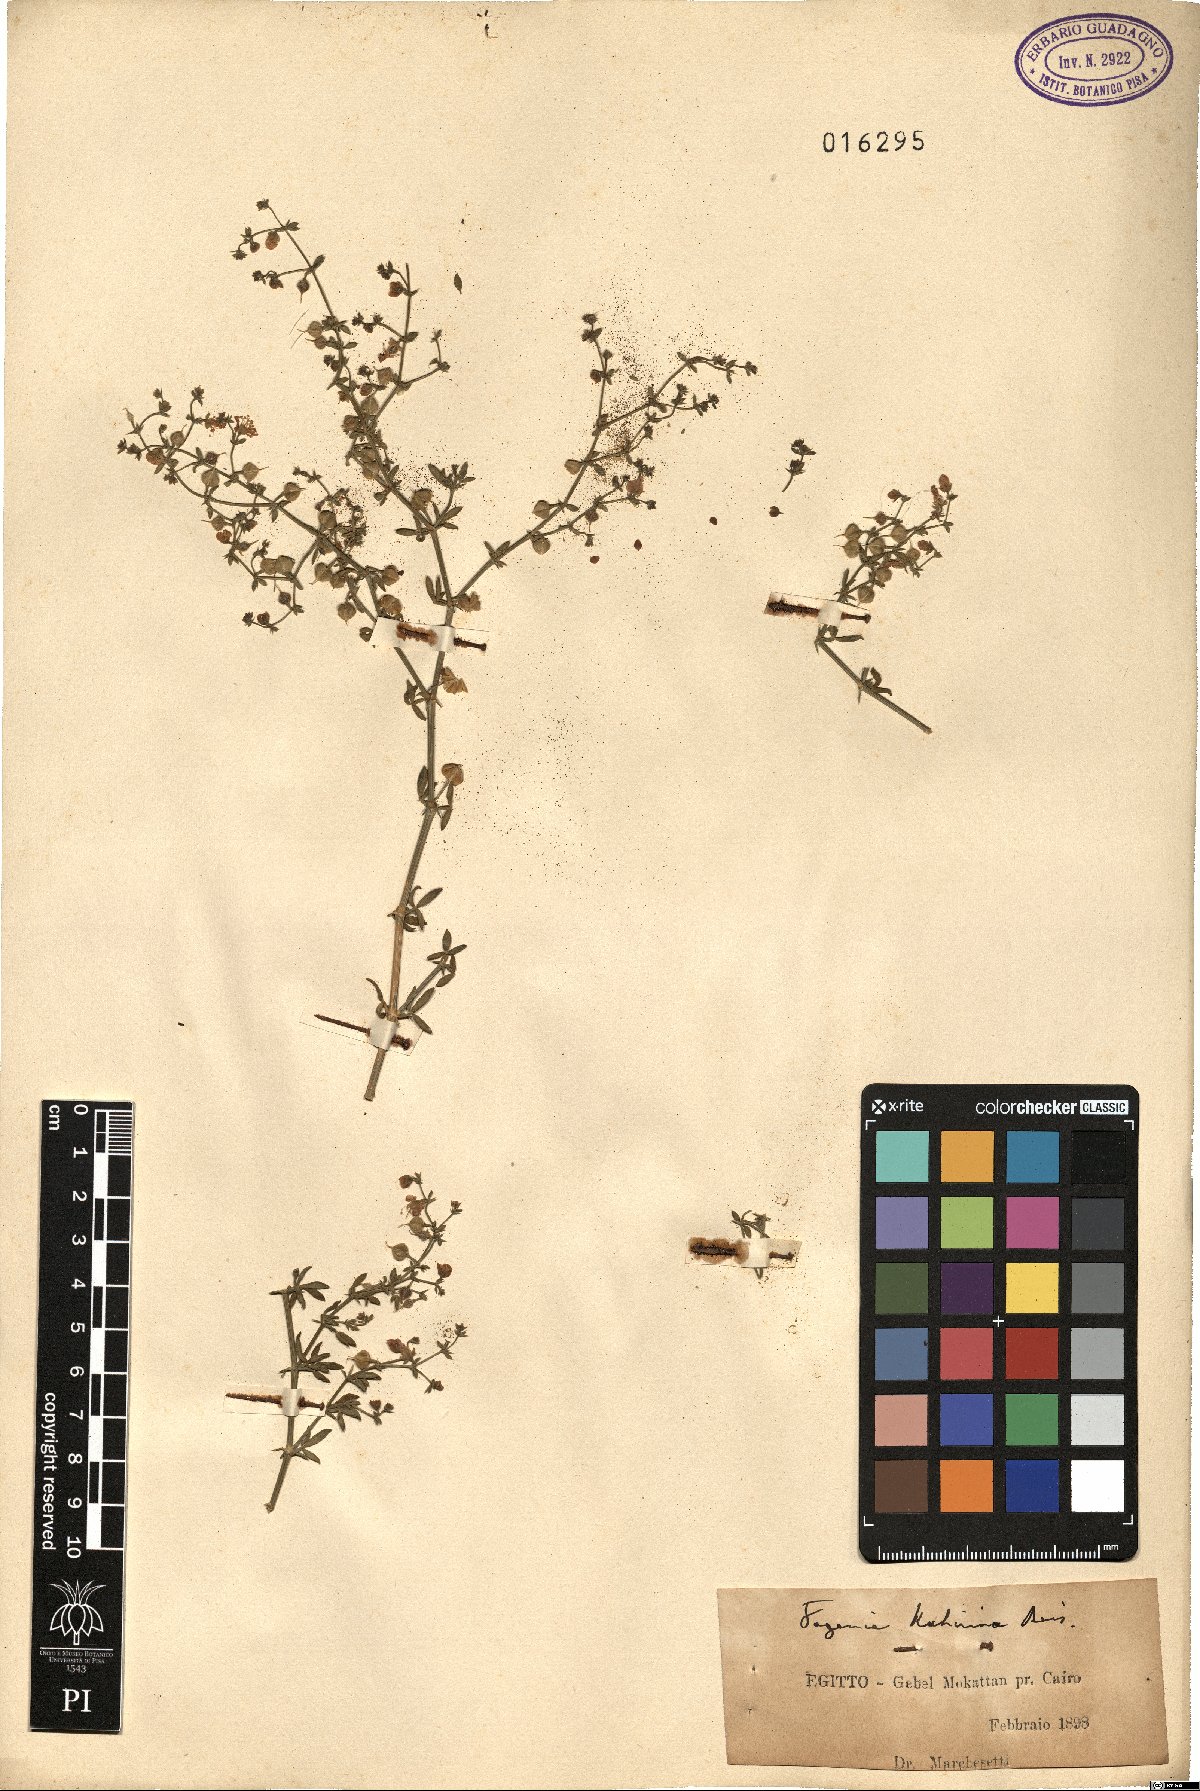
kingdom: Plantae
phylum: Tracheophyta
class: Magnoliopsida
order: Zygophyllales
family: Zygophyllaceae
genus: Fagonia
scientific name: Fagonia scabra
